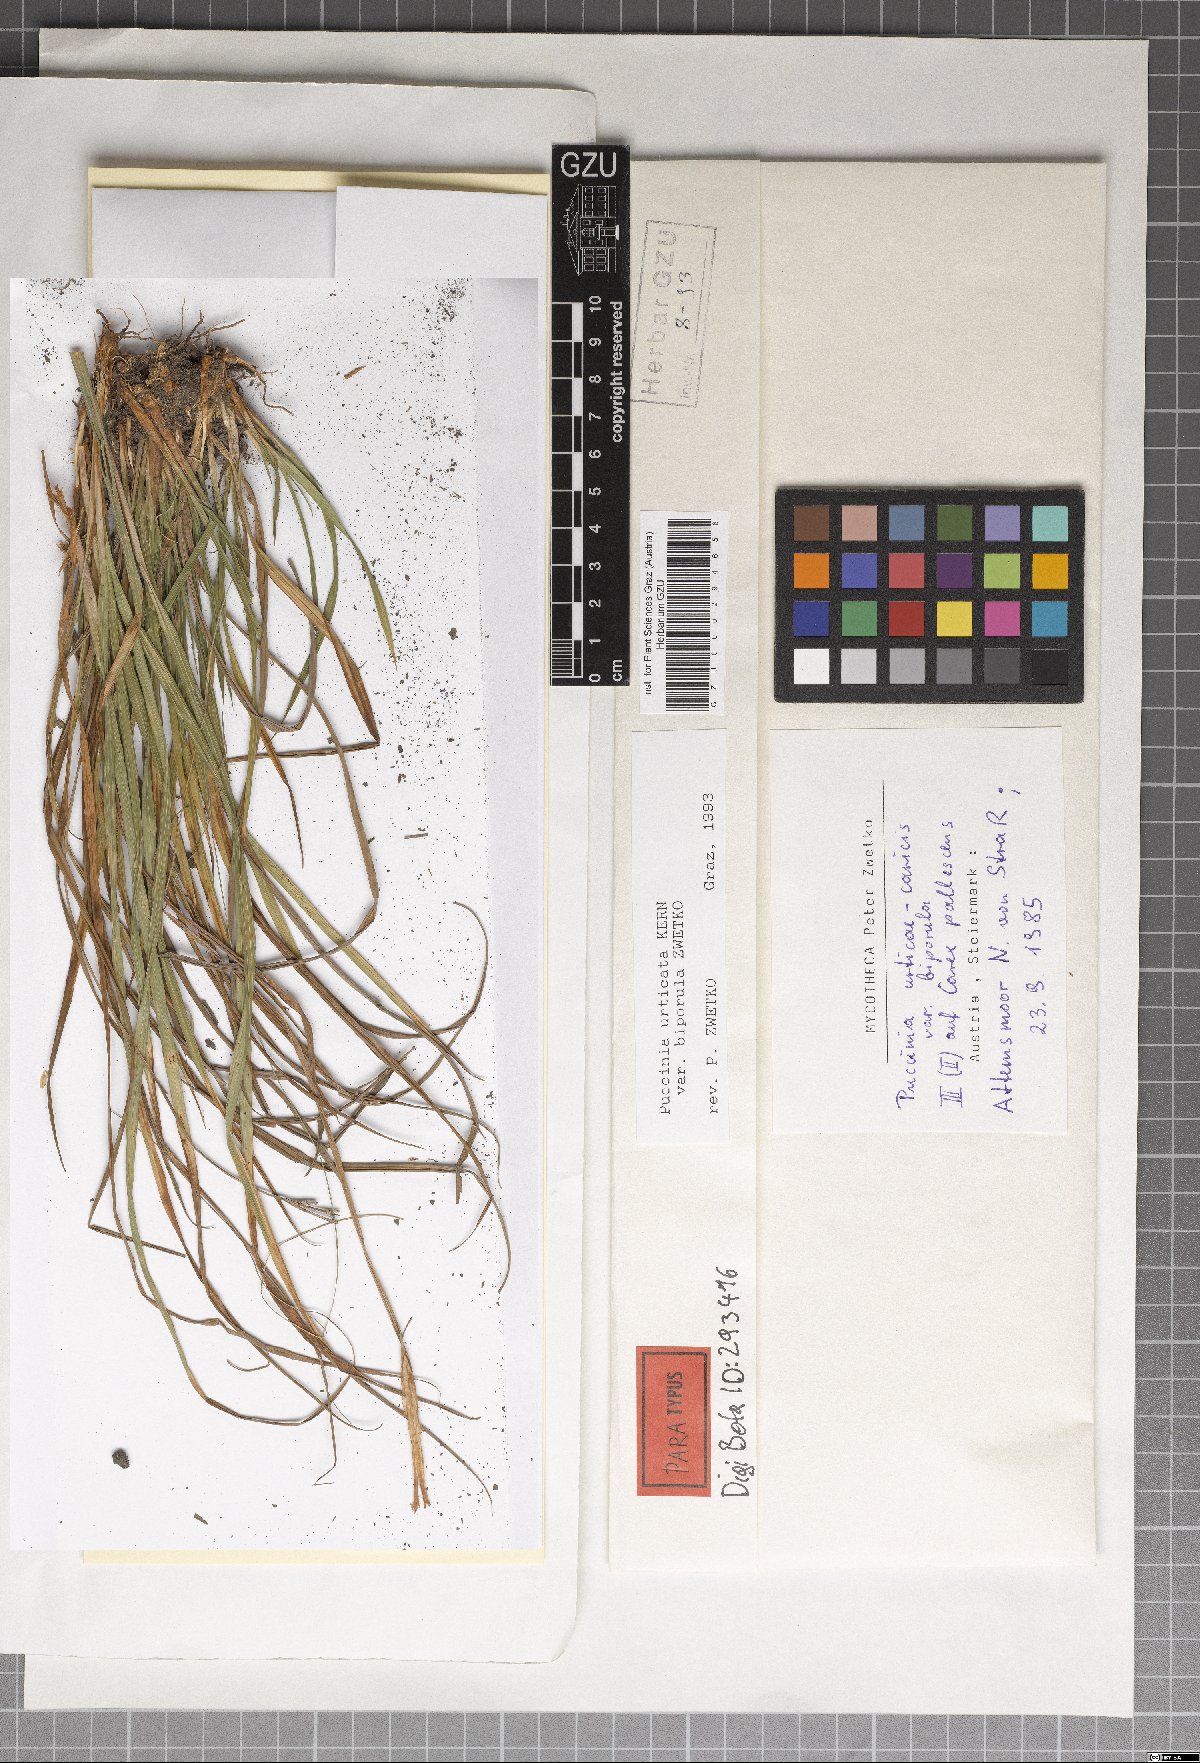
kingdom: Fungi
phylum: Basidiomycota
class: Pucciniomycetes
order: Pucciniales
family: Pucciniaceae
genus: Puccinia
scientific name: Puccinia biporospora
